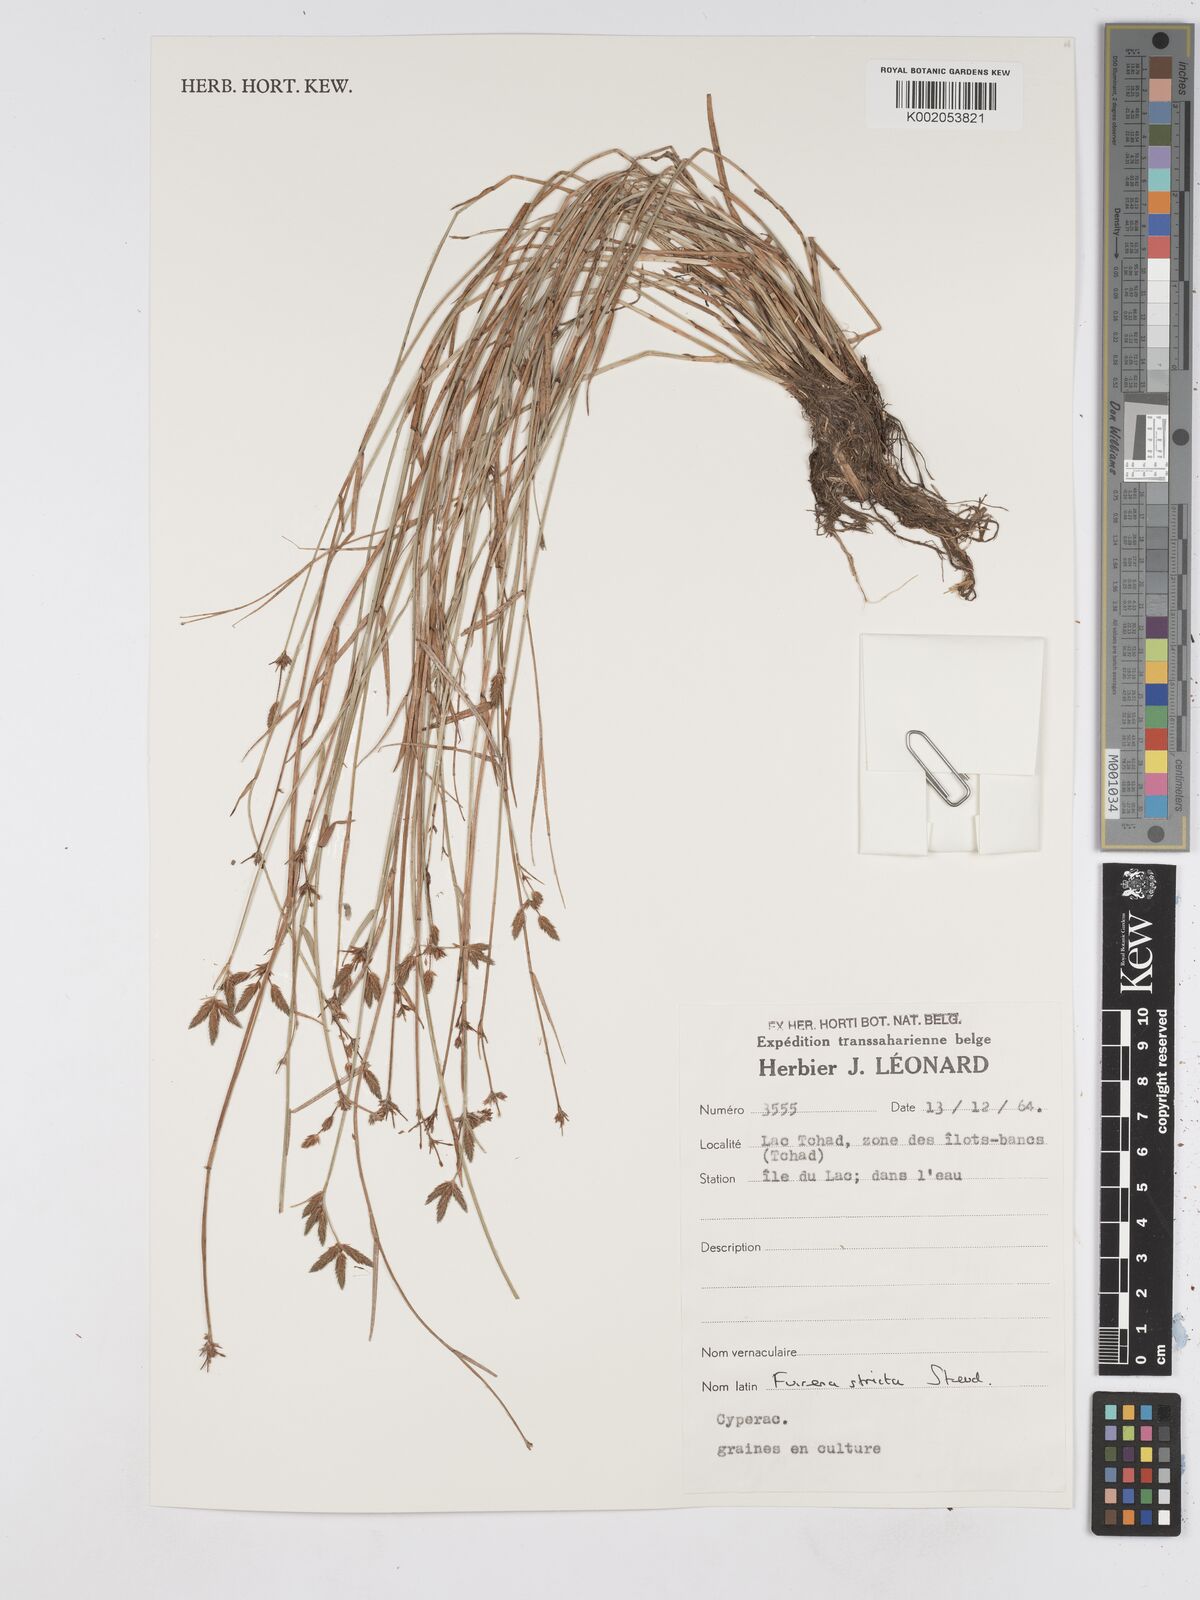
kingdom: Plantae
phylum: Tracheophyta
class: Liliopsida
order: Poales
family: Cyperaceae
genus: Fuirena
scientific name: Fuirena stricta
